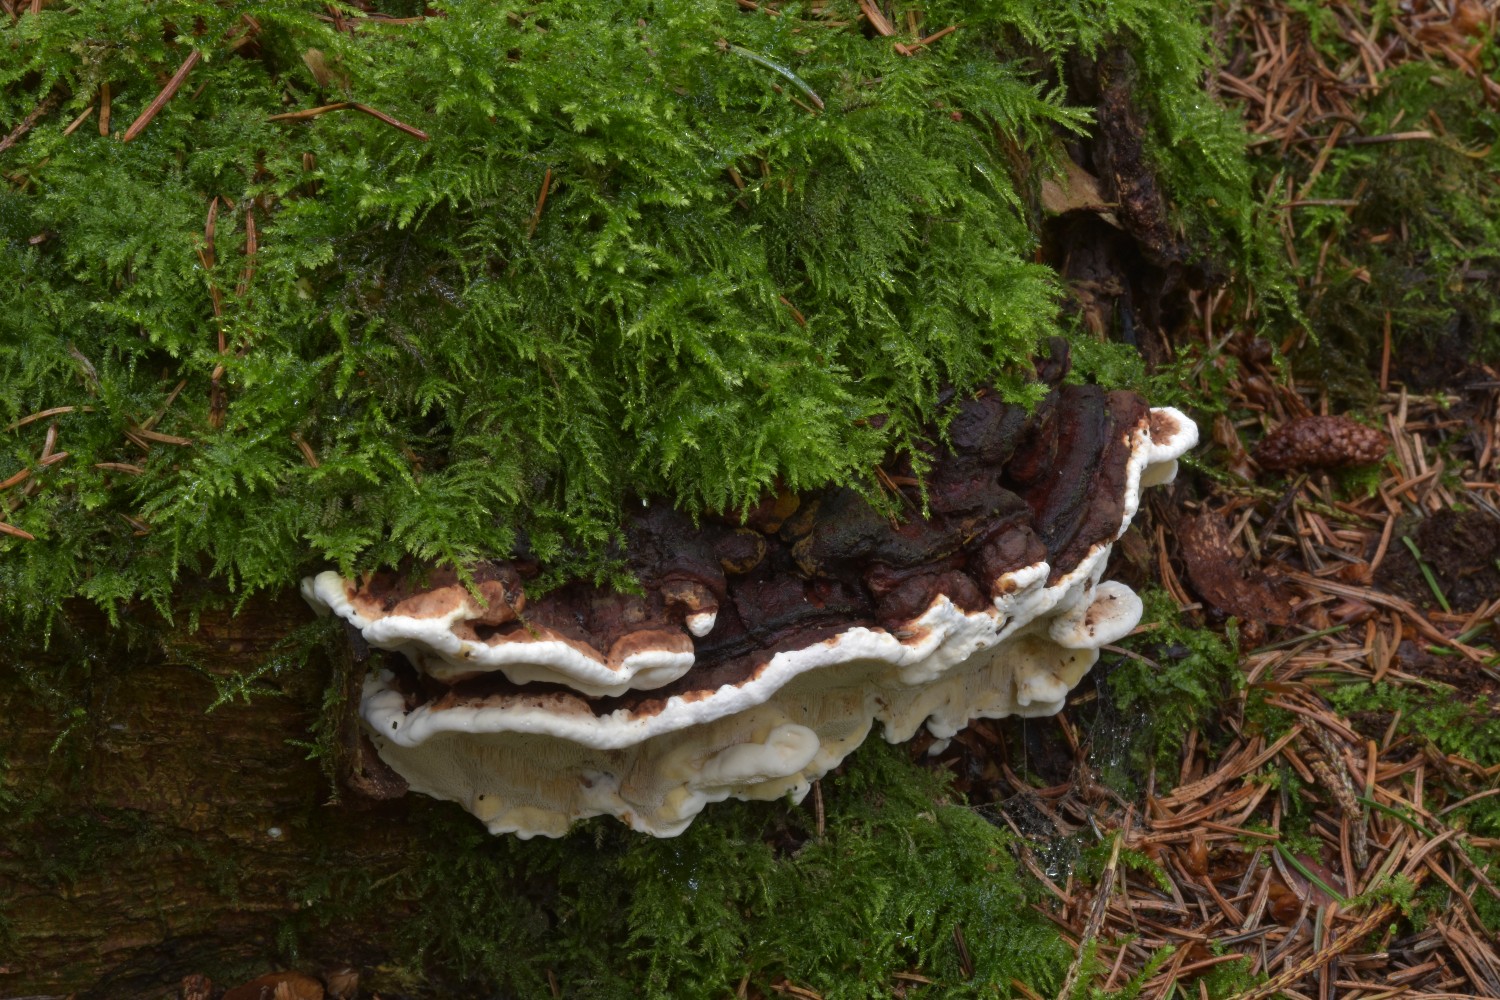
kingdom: Fungi
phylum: Basidiomycota
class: Agaricomycetes
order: Russulales
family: Bondarzewiaceae
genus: Heterobasidion
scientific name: Heterobasidion annosum
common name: almindelig rodfordærver
